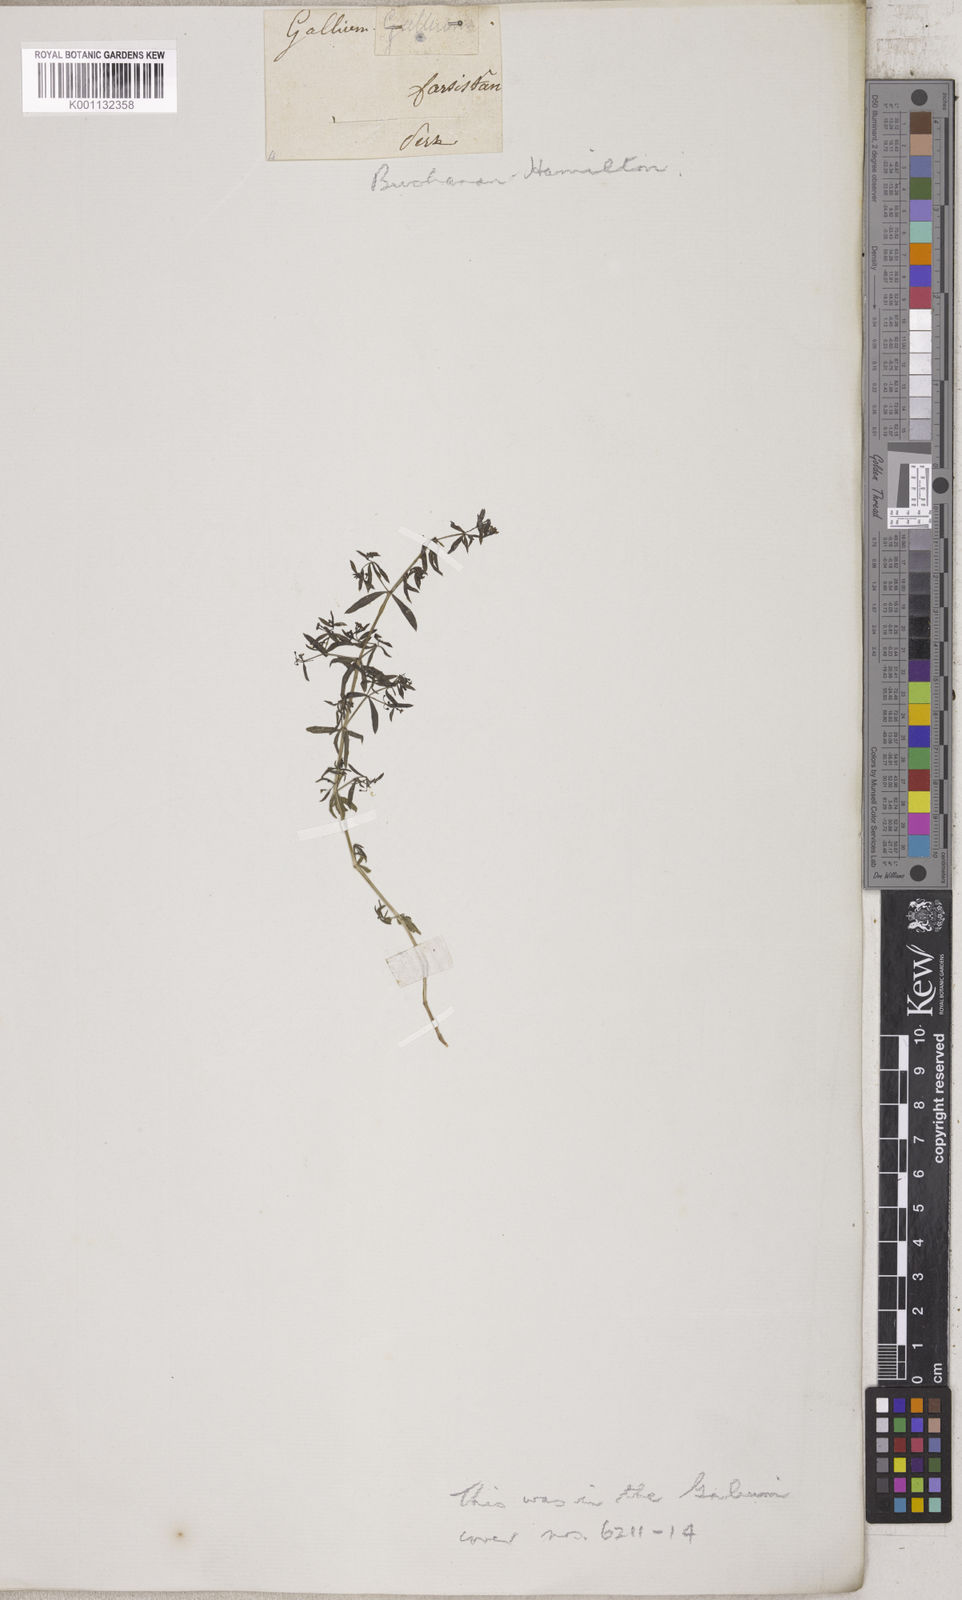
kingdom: Plantae
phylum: Tracheophyta
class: Magnoliopsida
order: Gentianales
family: Rubiaceae
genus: Galium
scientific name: Galium
